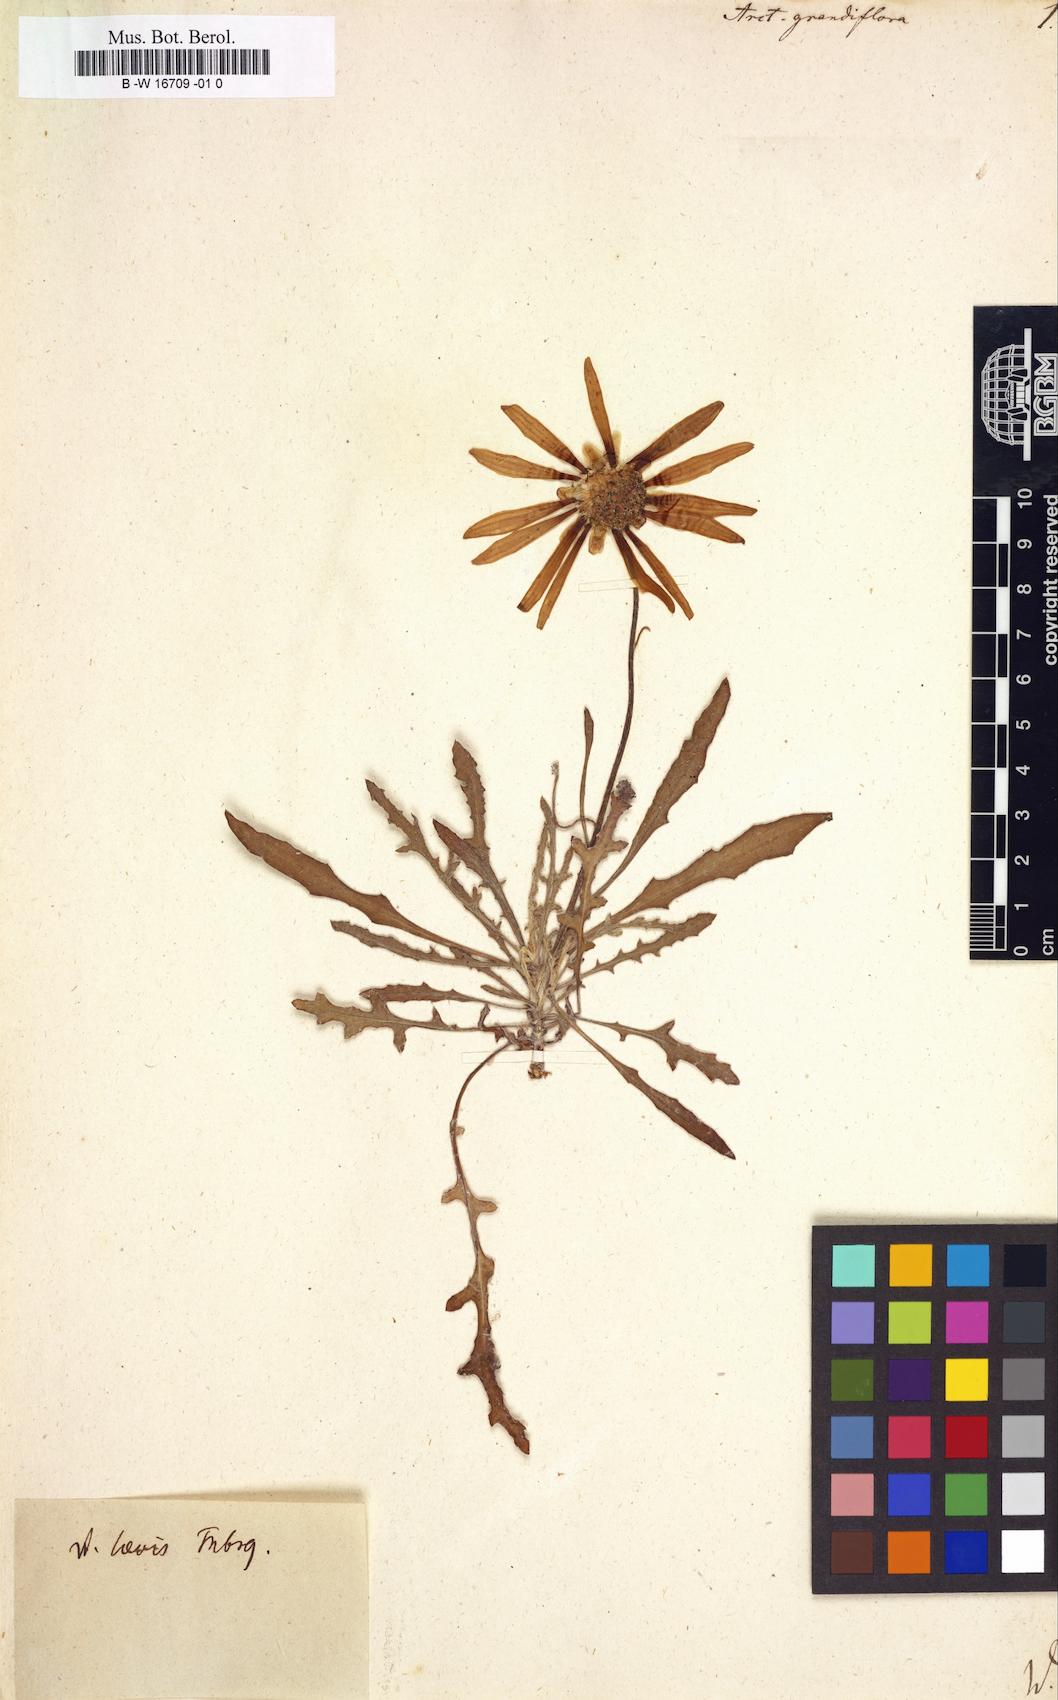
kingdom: Plantae
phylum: Tracheophyta
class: Magnoliopsida
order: Asterales
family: Asteraceae
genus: Arctotis
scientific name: Arctotis revoluta
